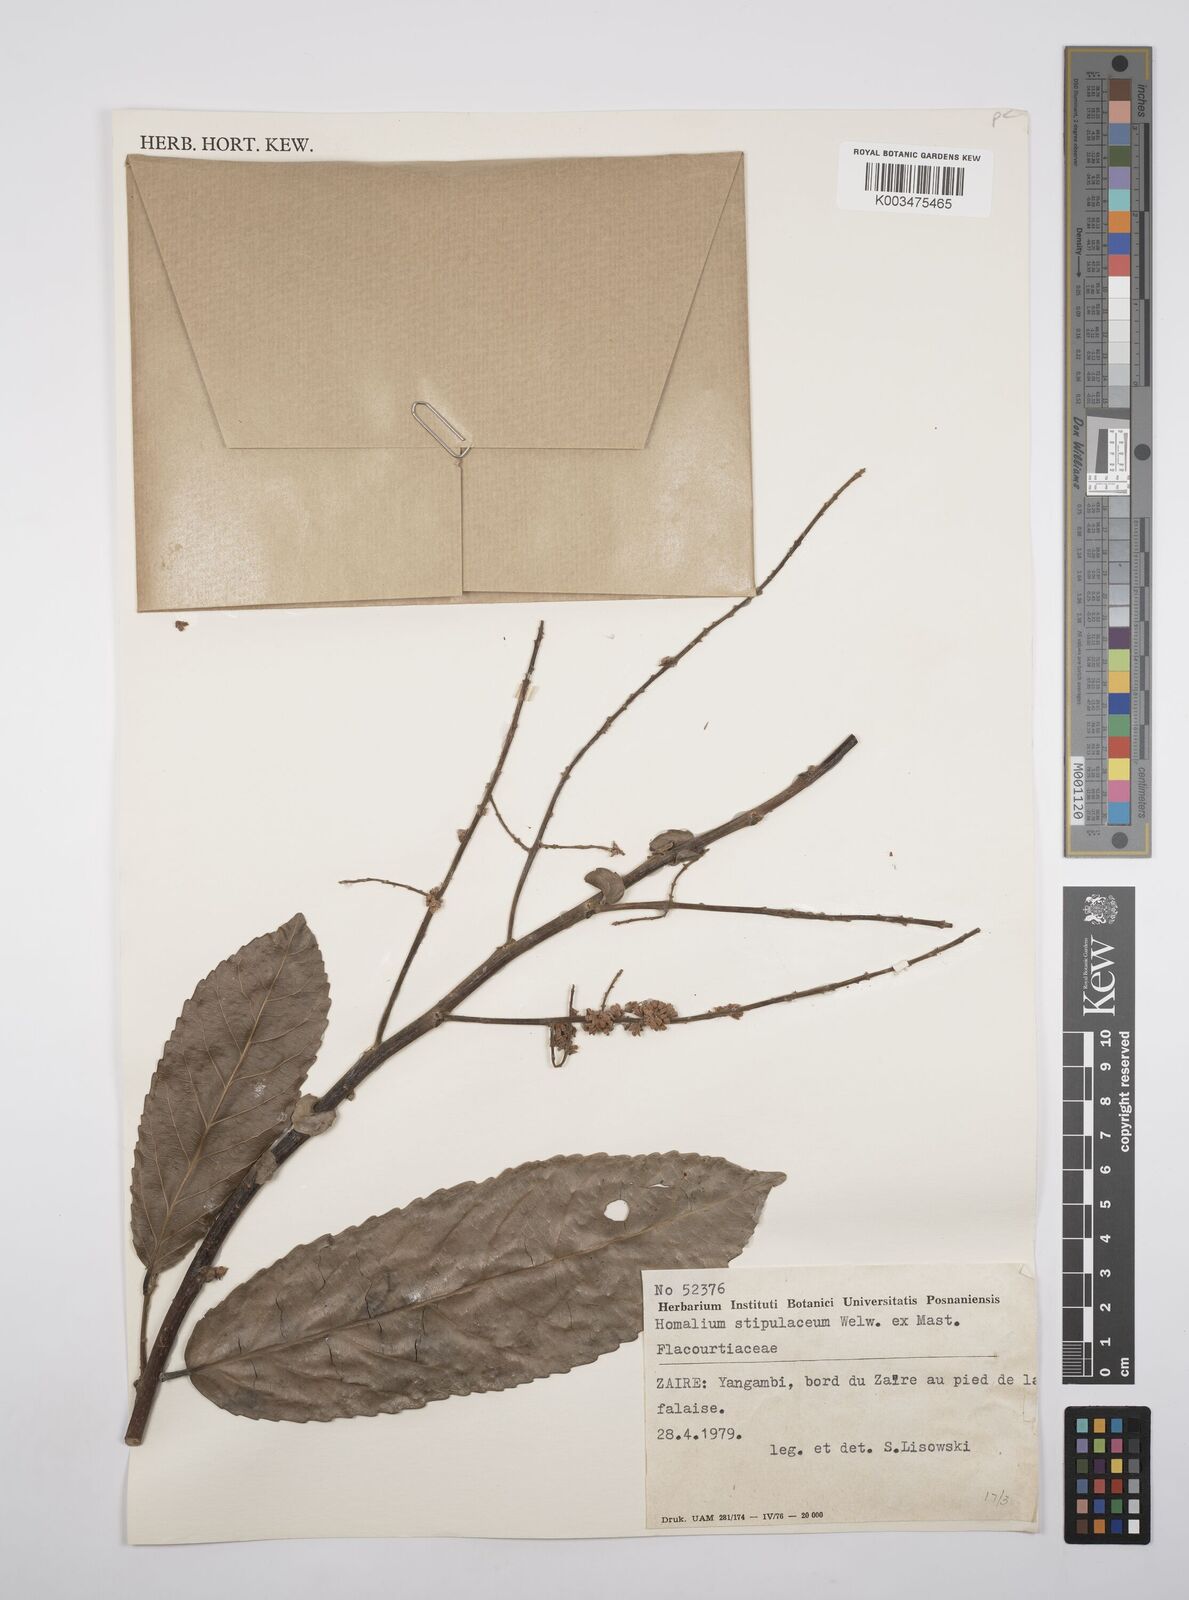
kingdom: Plantae
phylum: Tracheophyta
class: Magnoliopsida
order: Malpighiales
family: Salicaceae
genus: Homalium
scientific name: Homalium
